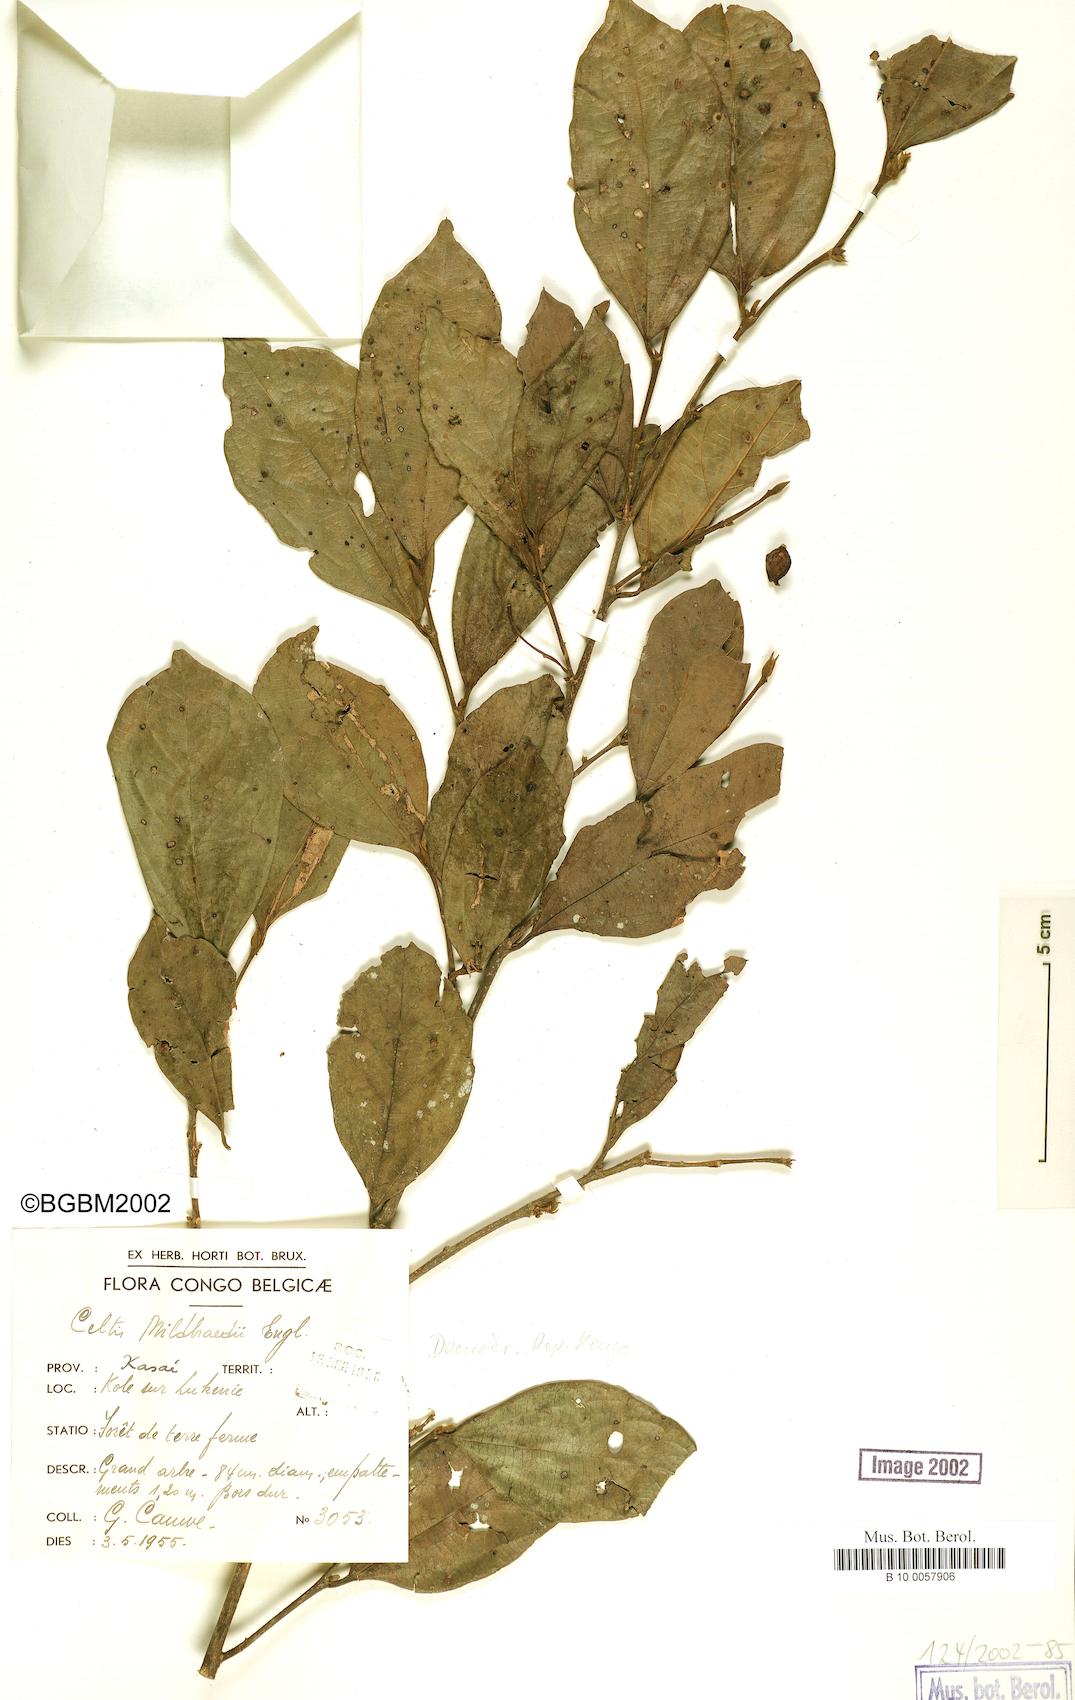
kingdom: Plantae
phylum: Tracheophyta
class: Magnoliopsida
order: Rosales
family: Cannabaceae
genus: Celtis
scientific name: Celtis mildbraedii
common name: Red-fruited stinkwood
